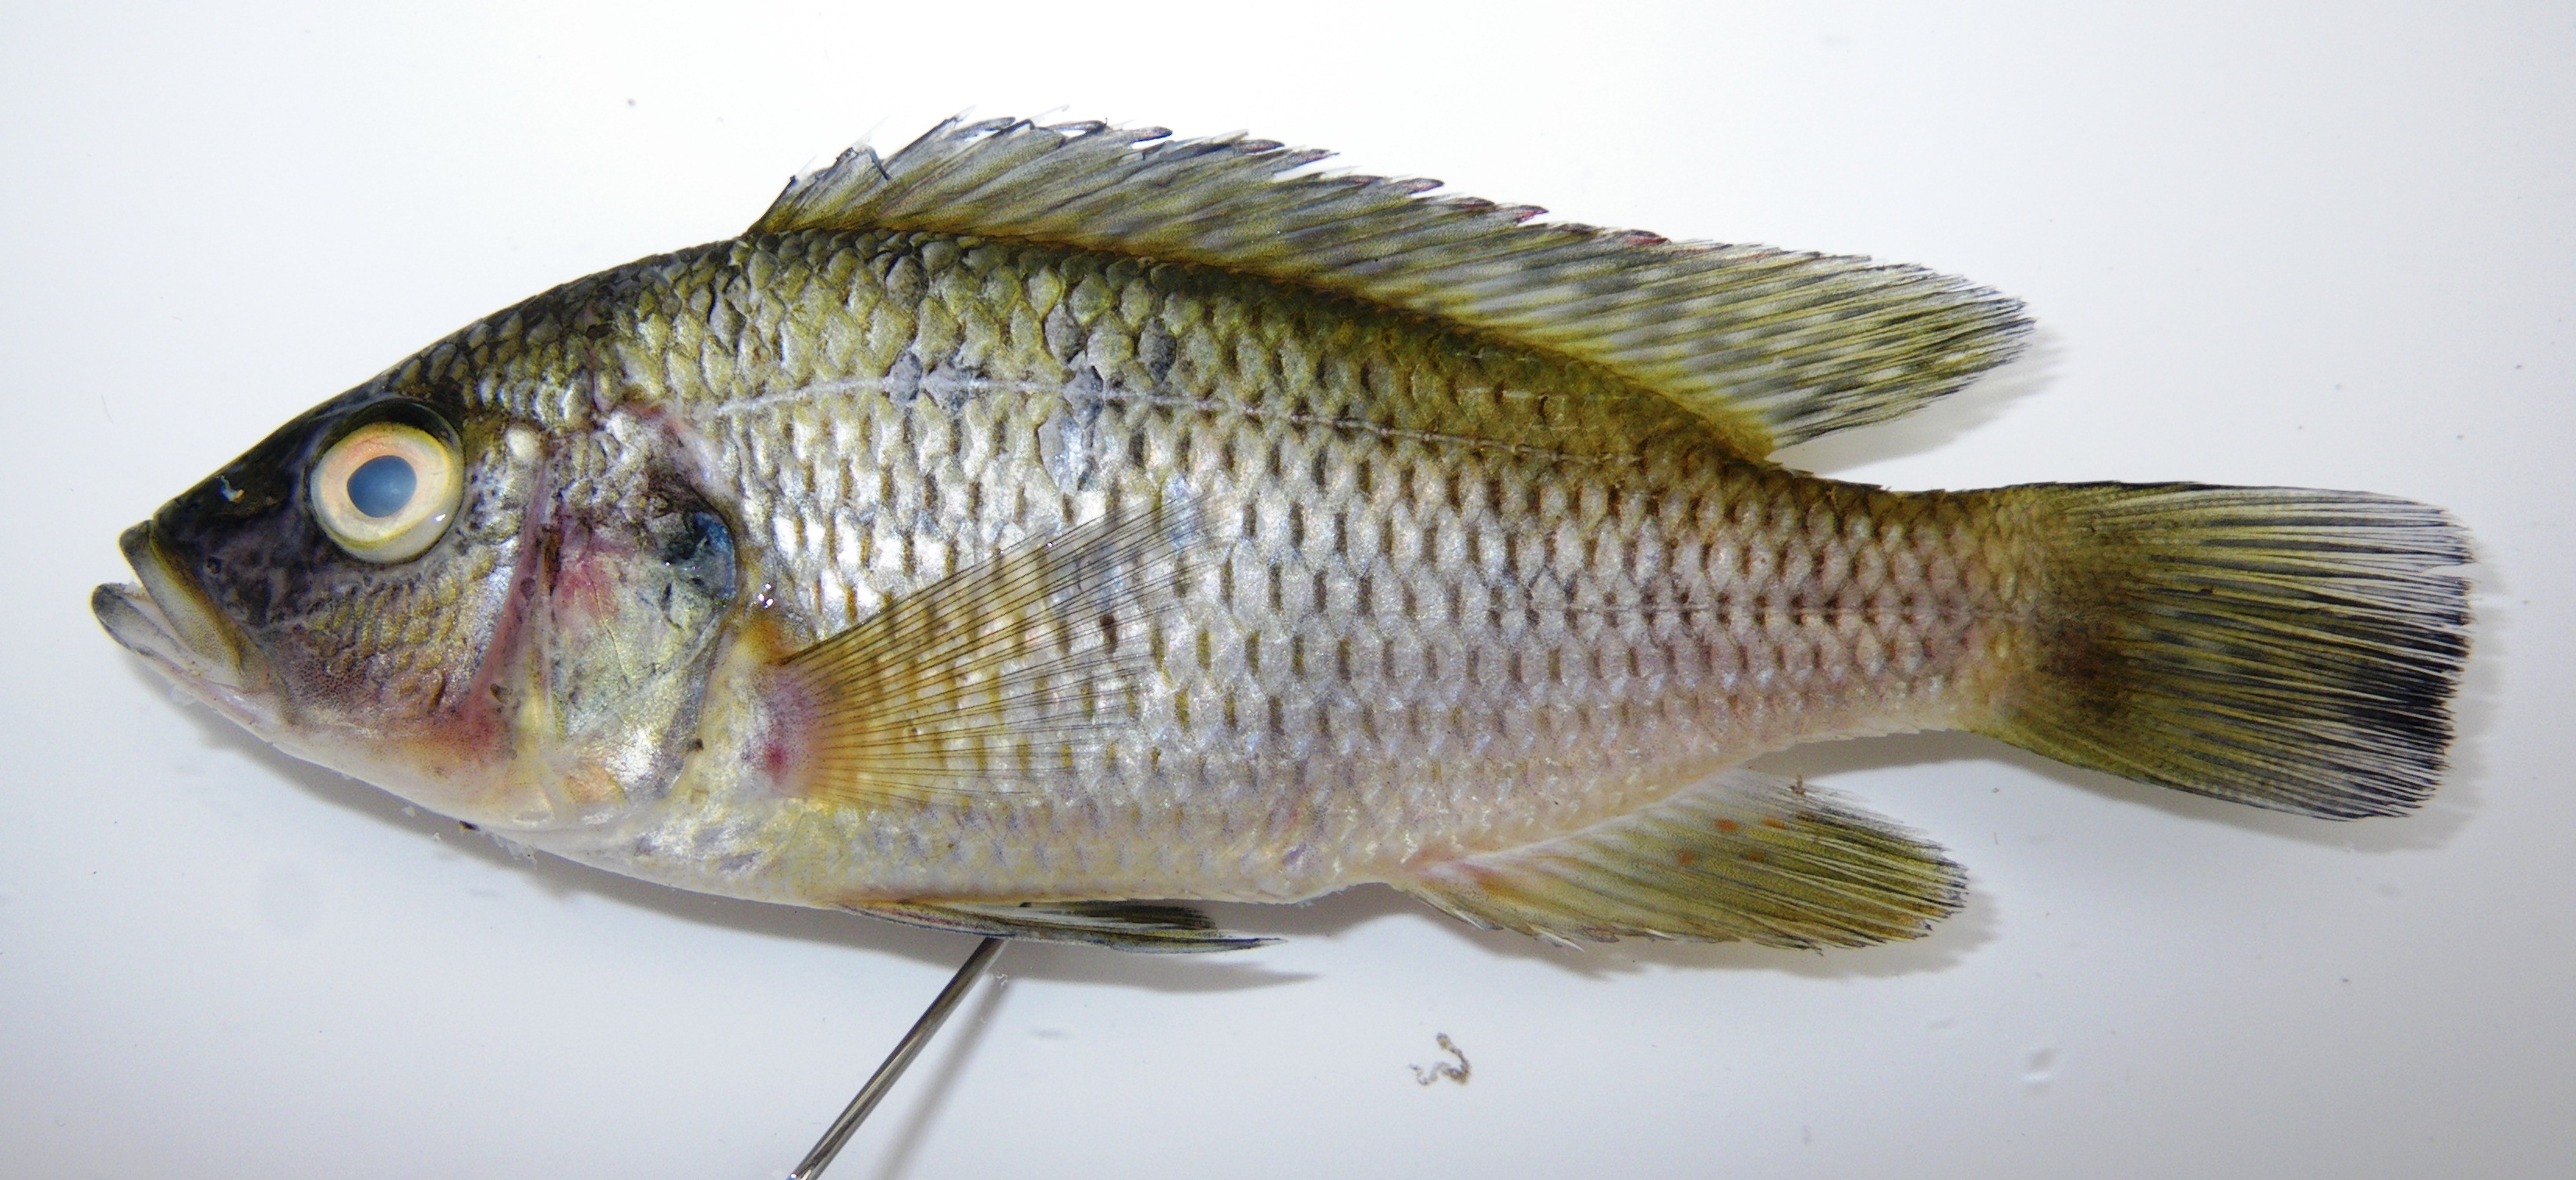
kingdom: Animalia
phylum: Chordata
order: Perciformes
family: Cichlidae
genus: Sargochromis
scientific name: Sargochromis mellandi
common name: Green bream
